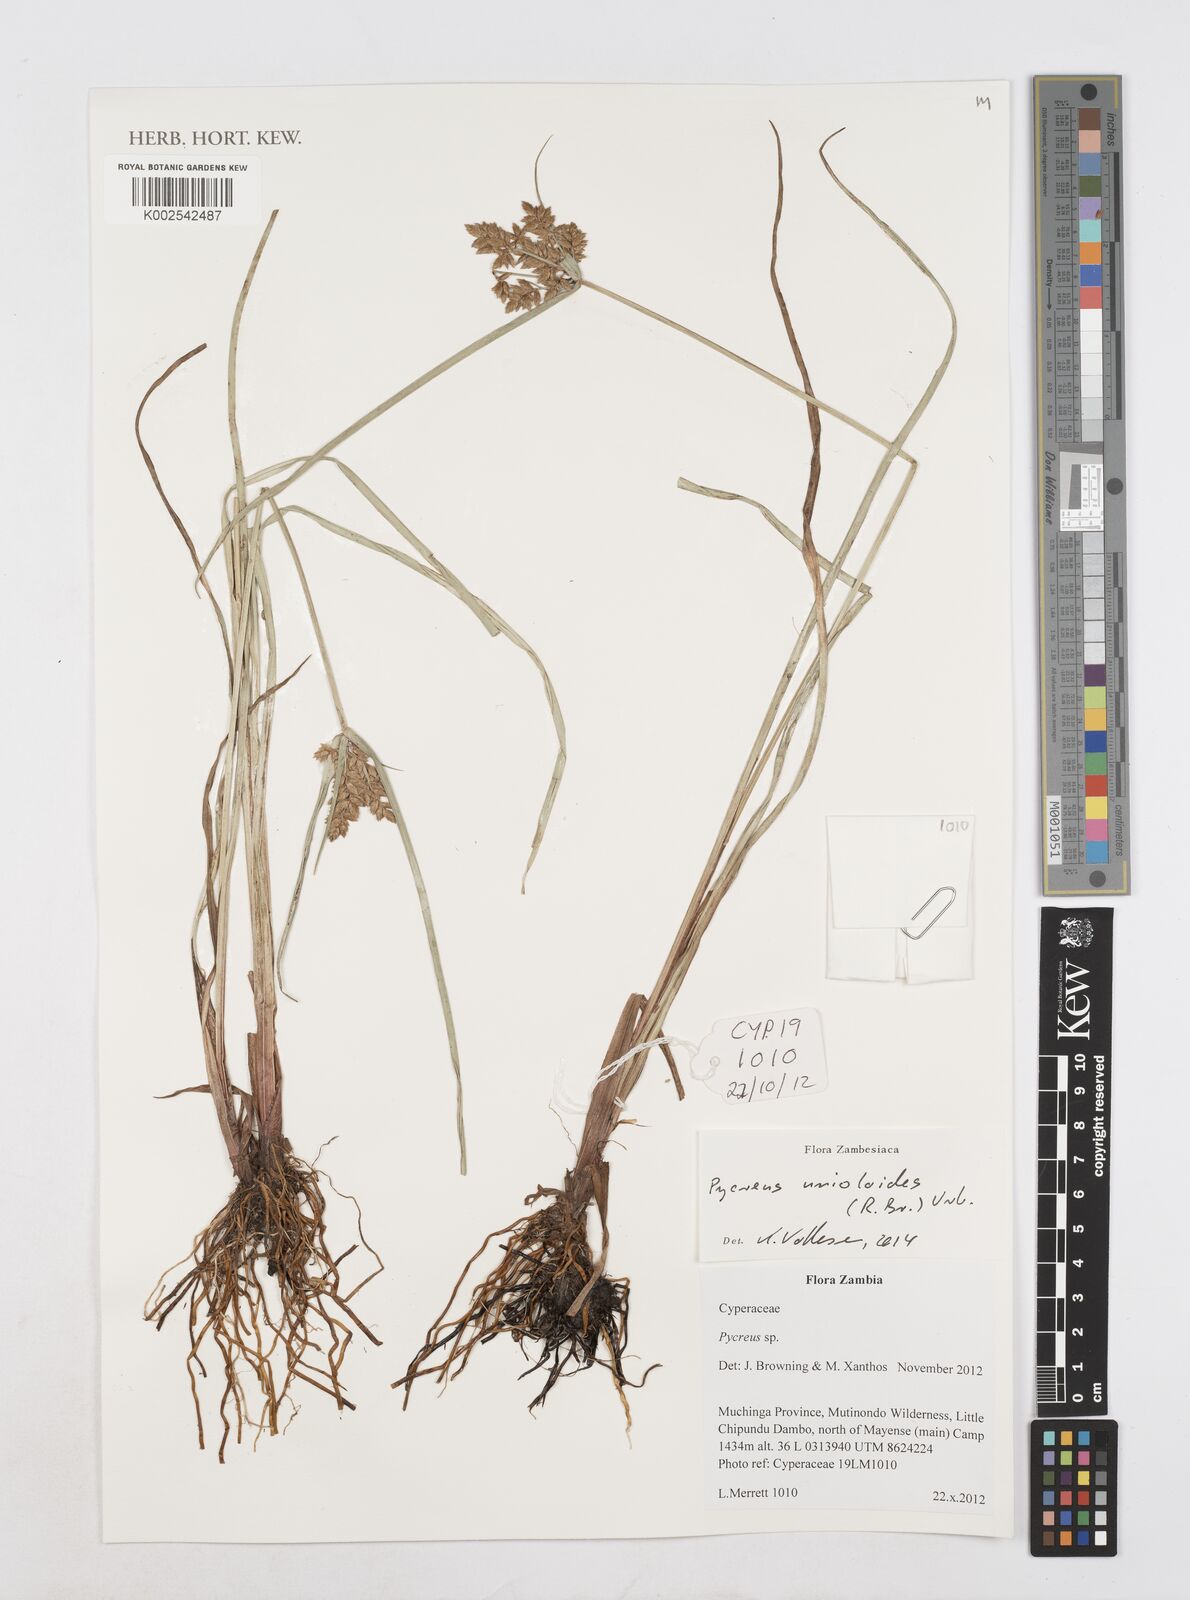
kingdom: Plantae
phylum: Tracheophyta
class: Liliopsida
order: Poales
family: Cyperaceae
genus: Cyperus
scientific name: Cyperus unioloides
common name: Uniola flatsedge
